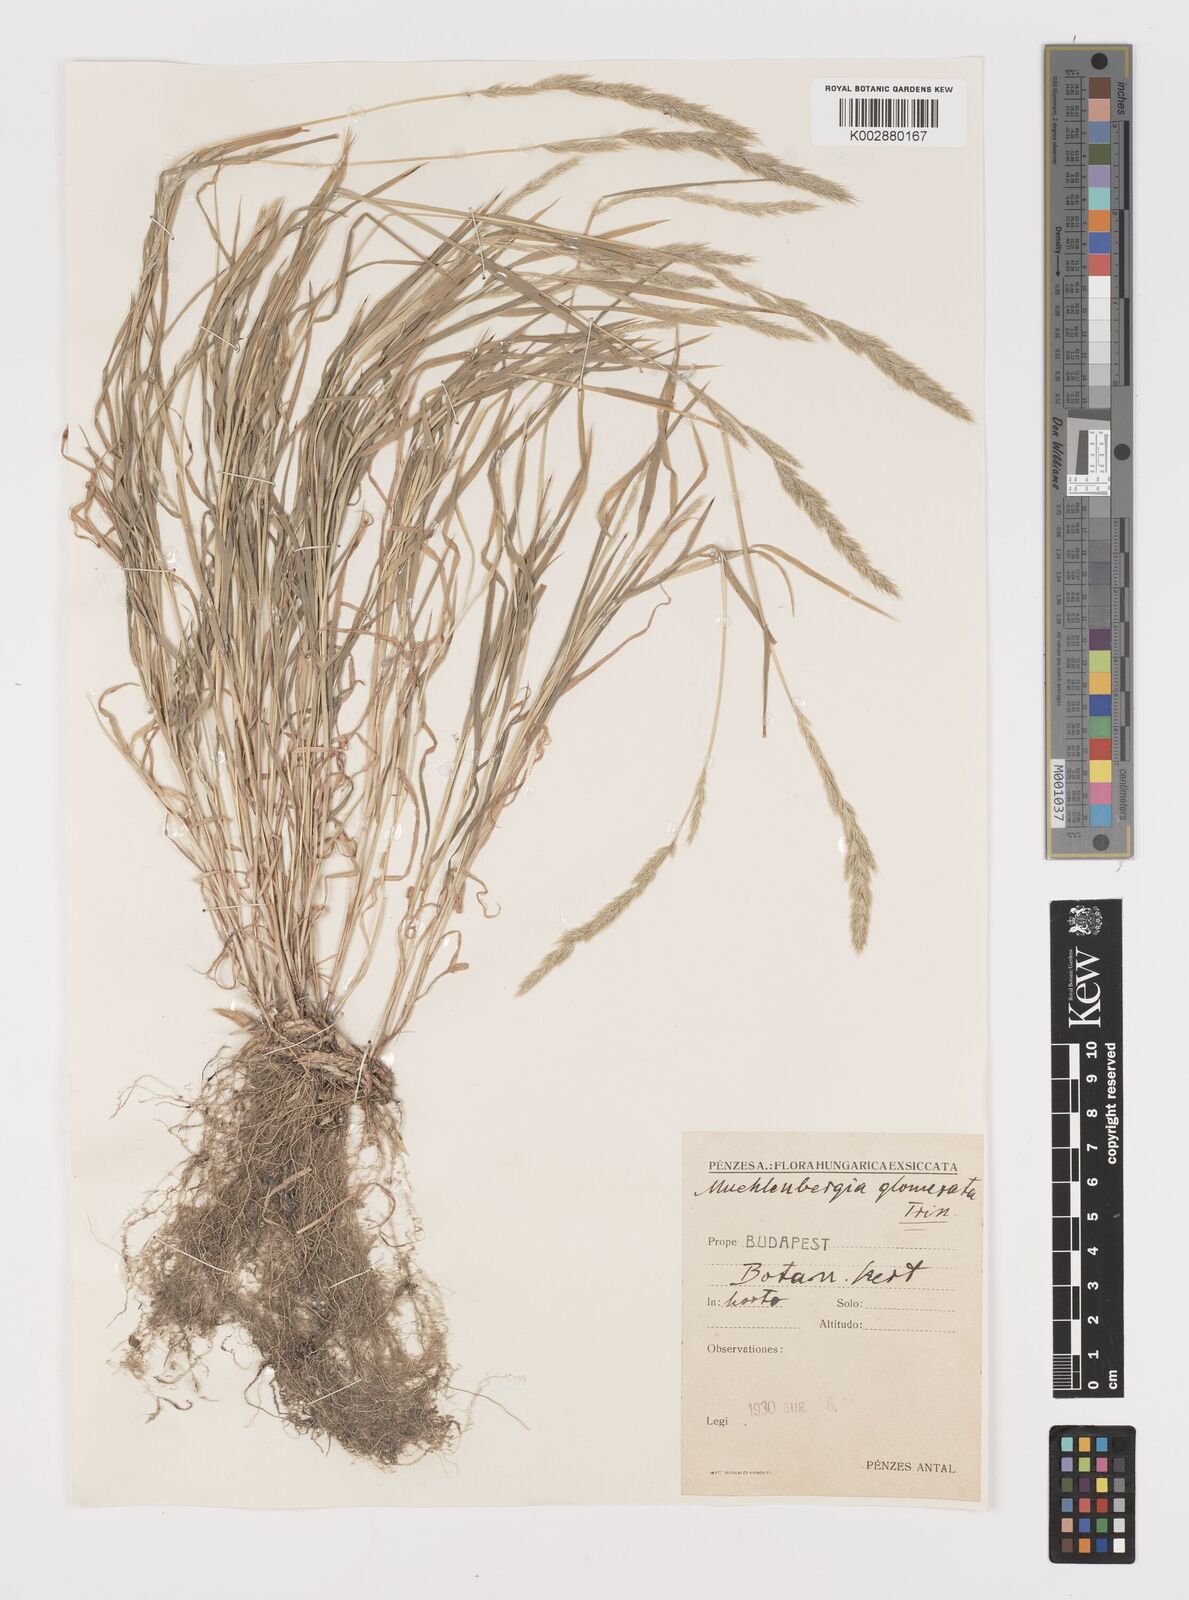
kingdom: Plantae
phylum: Tracheophyta
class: Liliopsida
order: Poales
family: Poaceae
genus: Muhlenbergia
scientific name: Muhlenbergia glomerata
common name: Bog muhly
